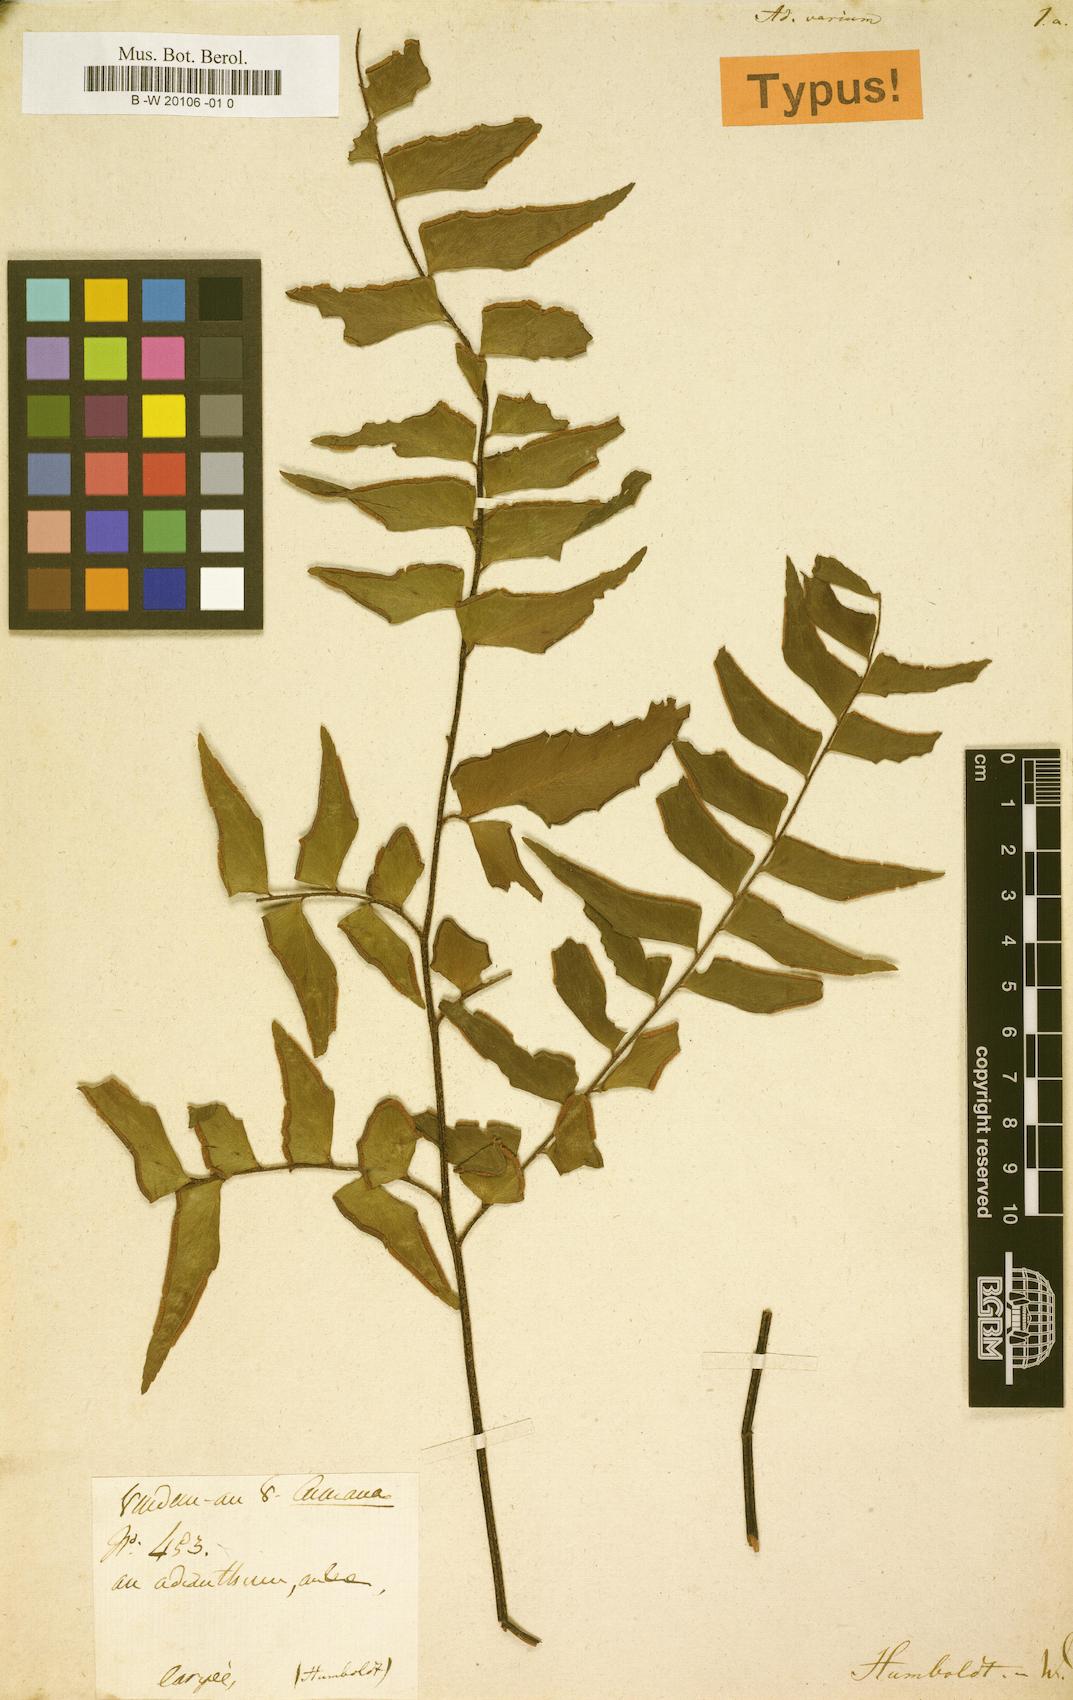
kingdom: Plantae
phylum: Tracheophyta
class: Polypodiopsida
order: Polypodiales
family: Pteridaceae
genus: Adiantum
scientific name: Adiantum lucidum
